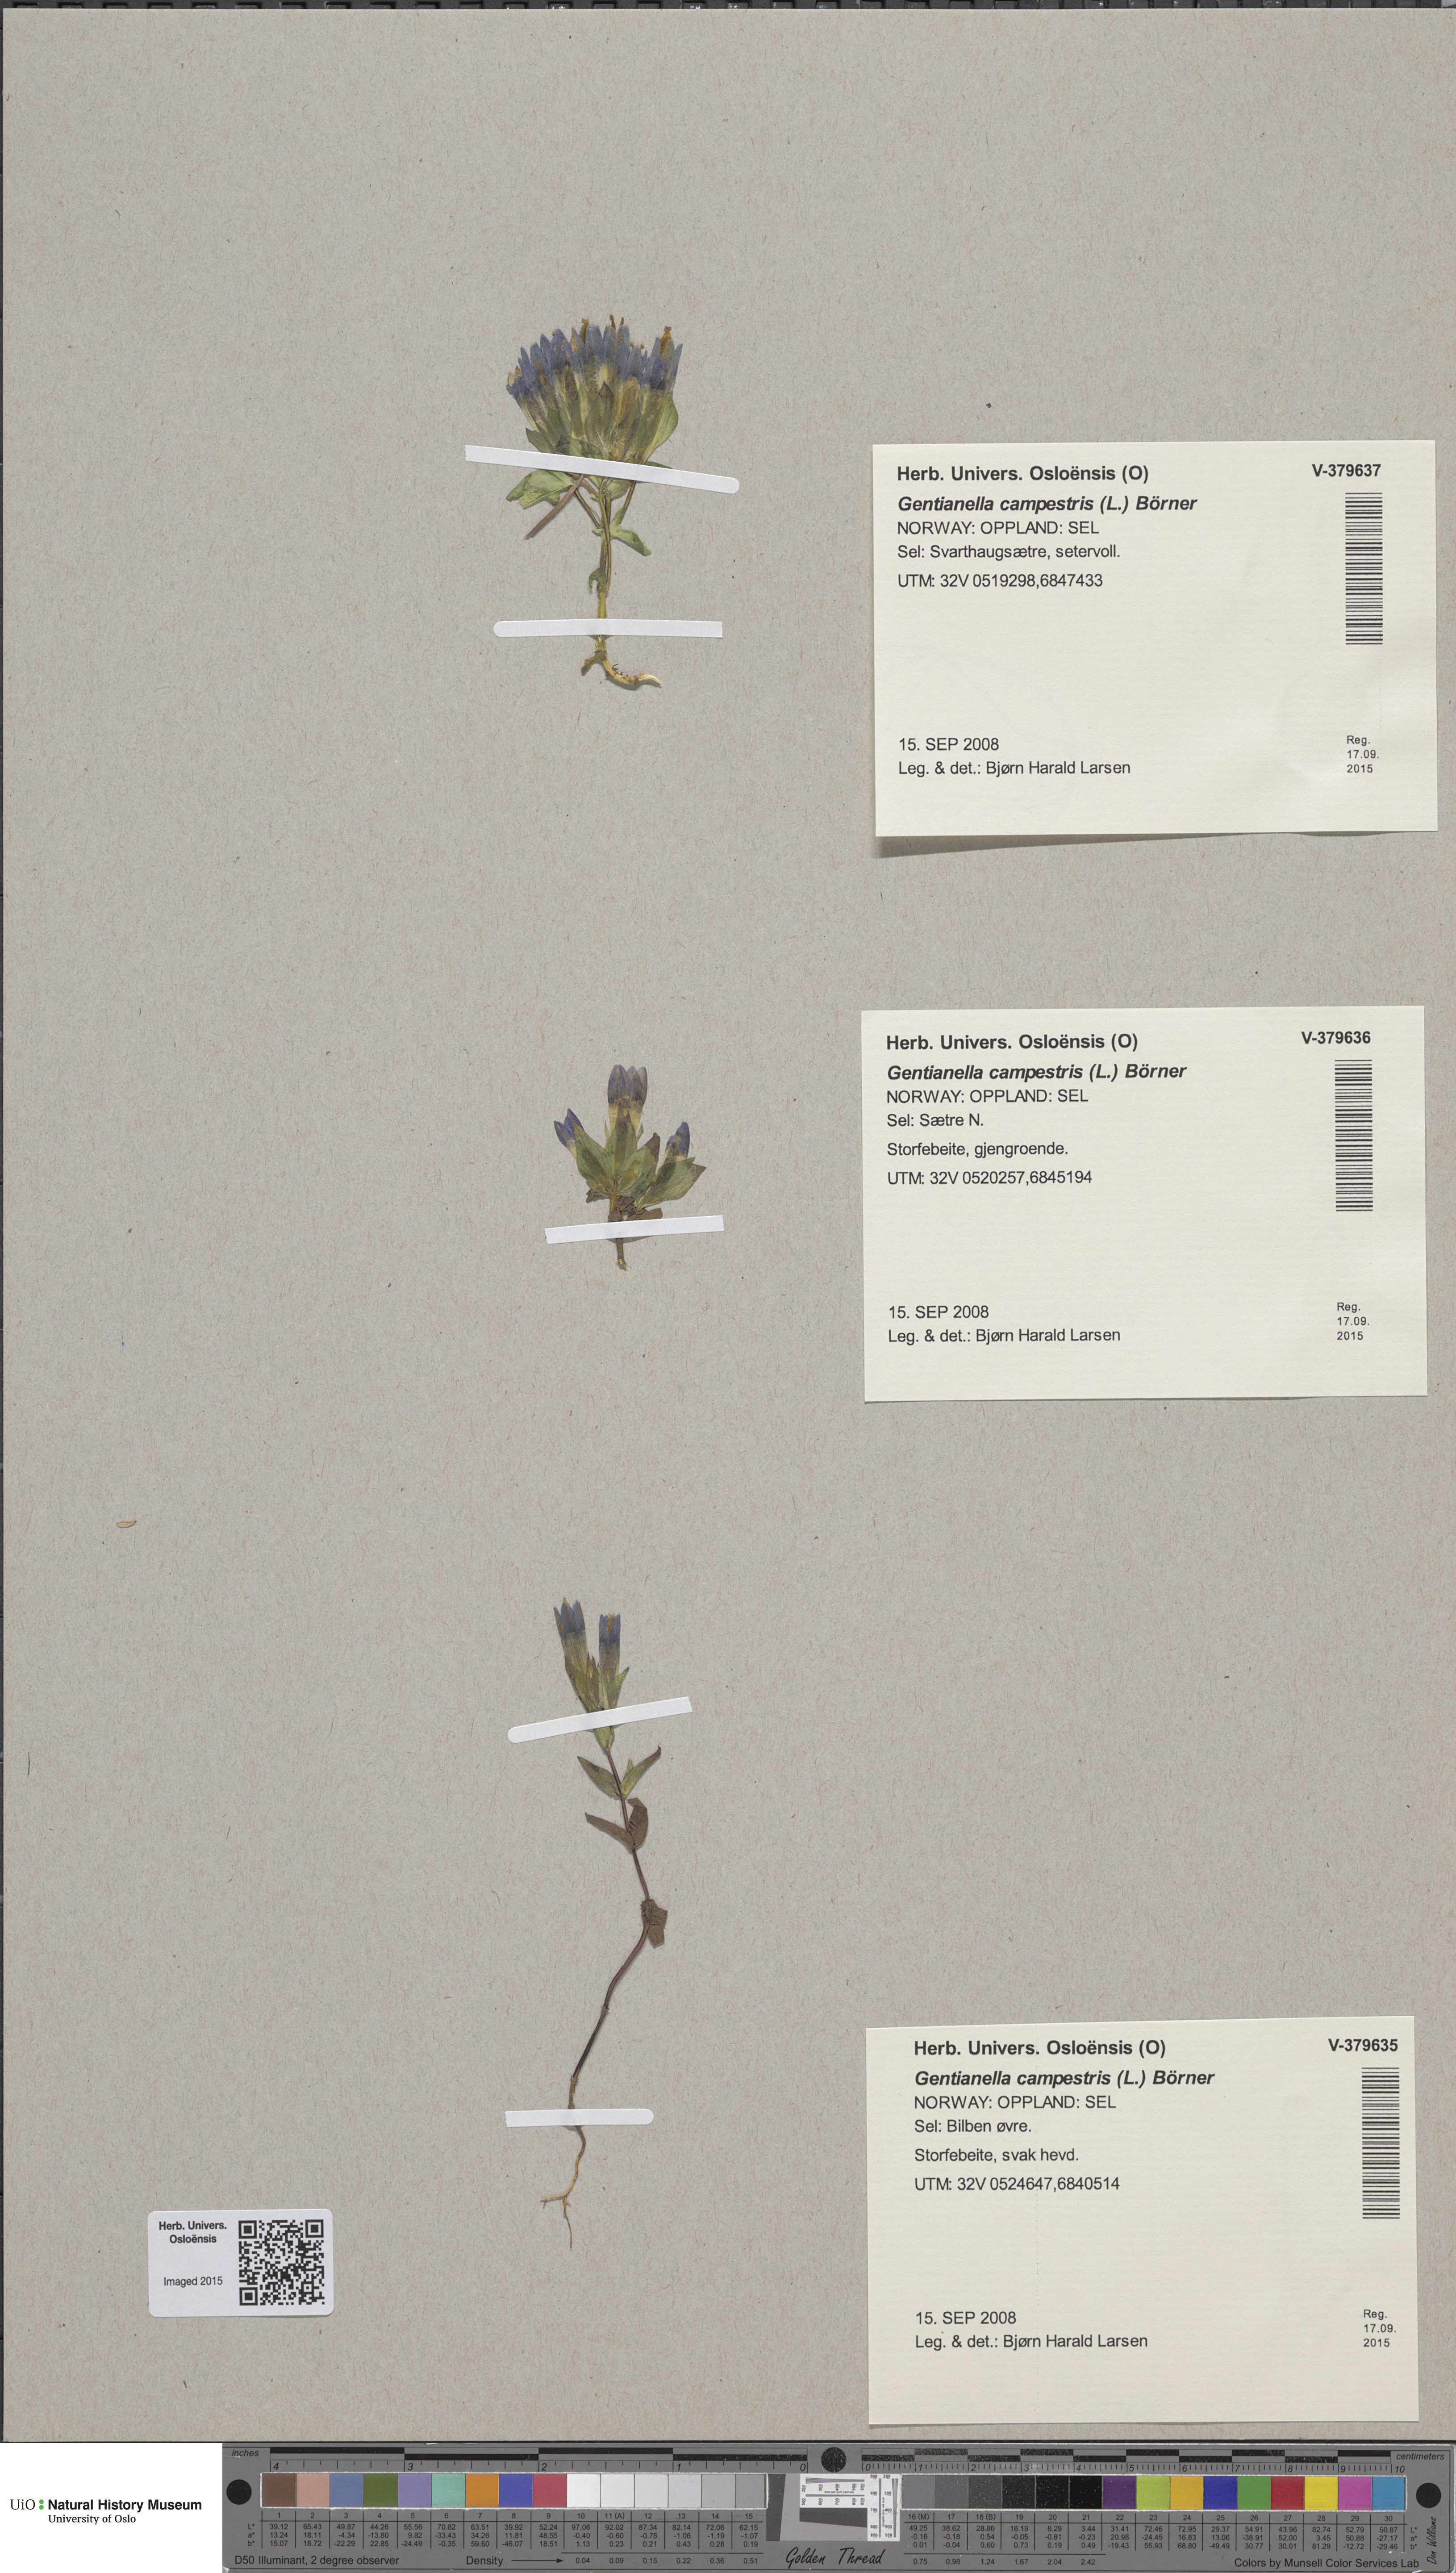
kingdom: Plantae
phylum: Tracheophyta
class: Magnoliopsida
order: Gentianales
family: Gentianaceae
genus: Gentianella
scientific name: Gentianella campestris
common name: Field gentian
